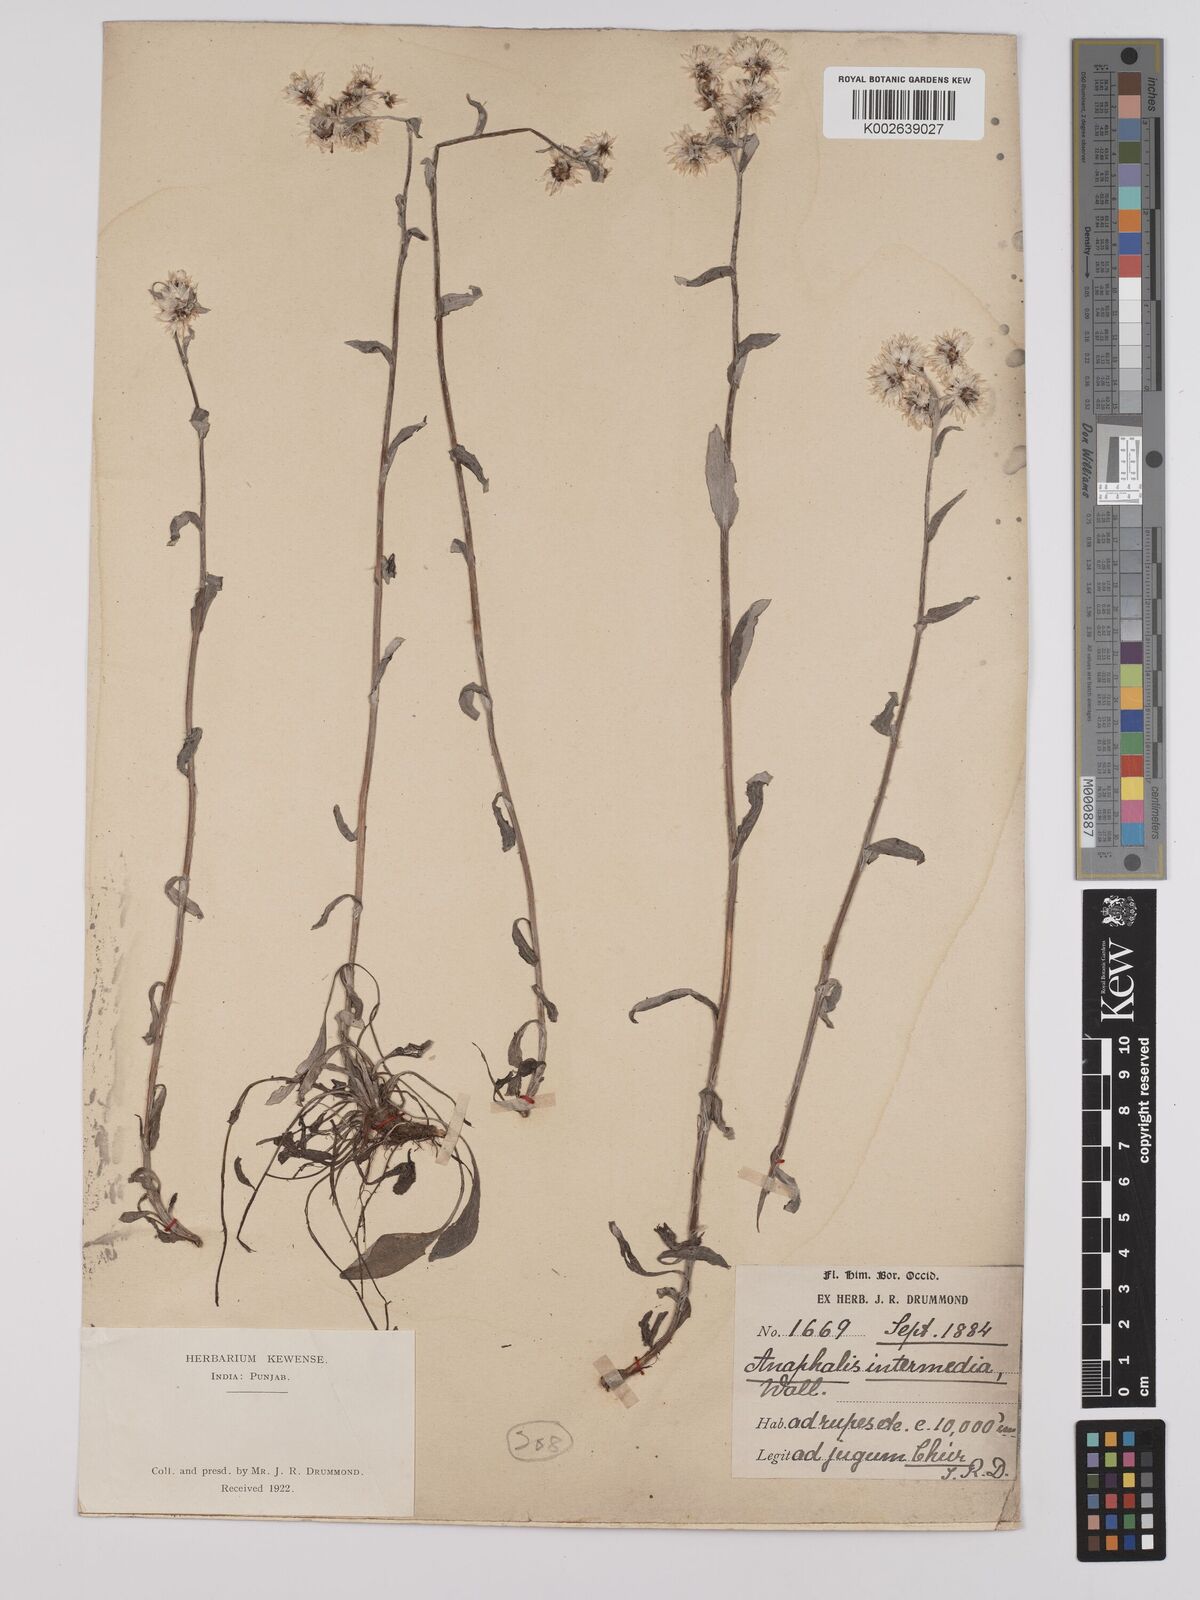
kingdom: Plantae
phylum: Tracheophyta
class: Magnoliopsida
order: Asterales
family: Asteraceae
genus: Anaphalis
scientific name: Anaphalis nepalensis
